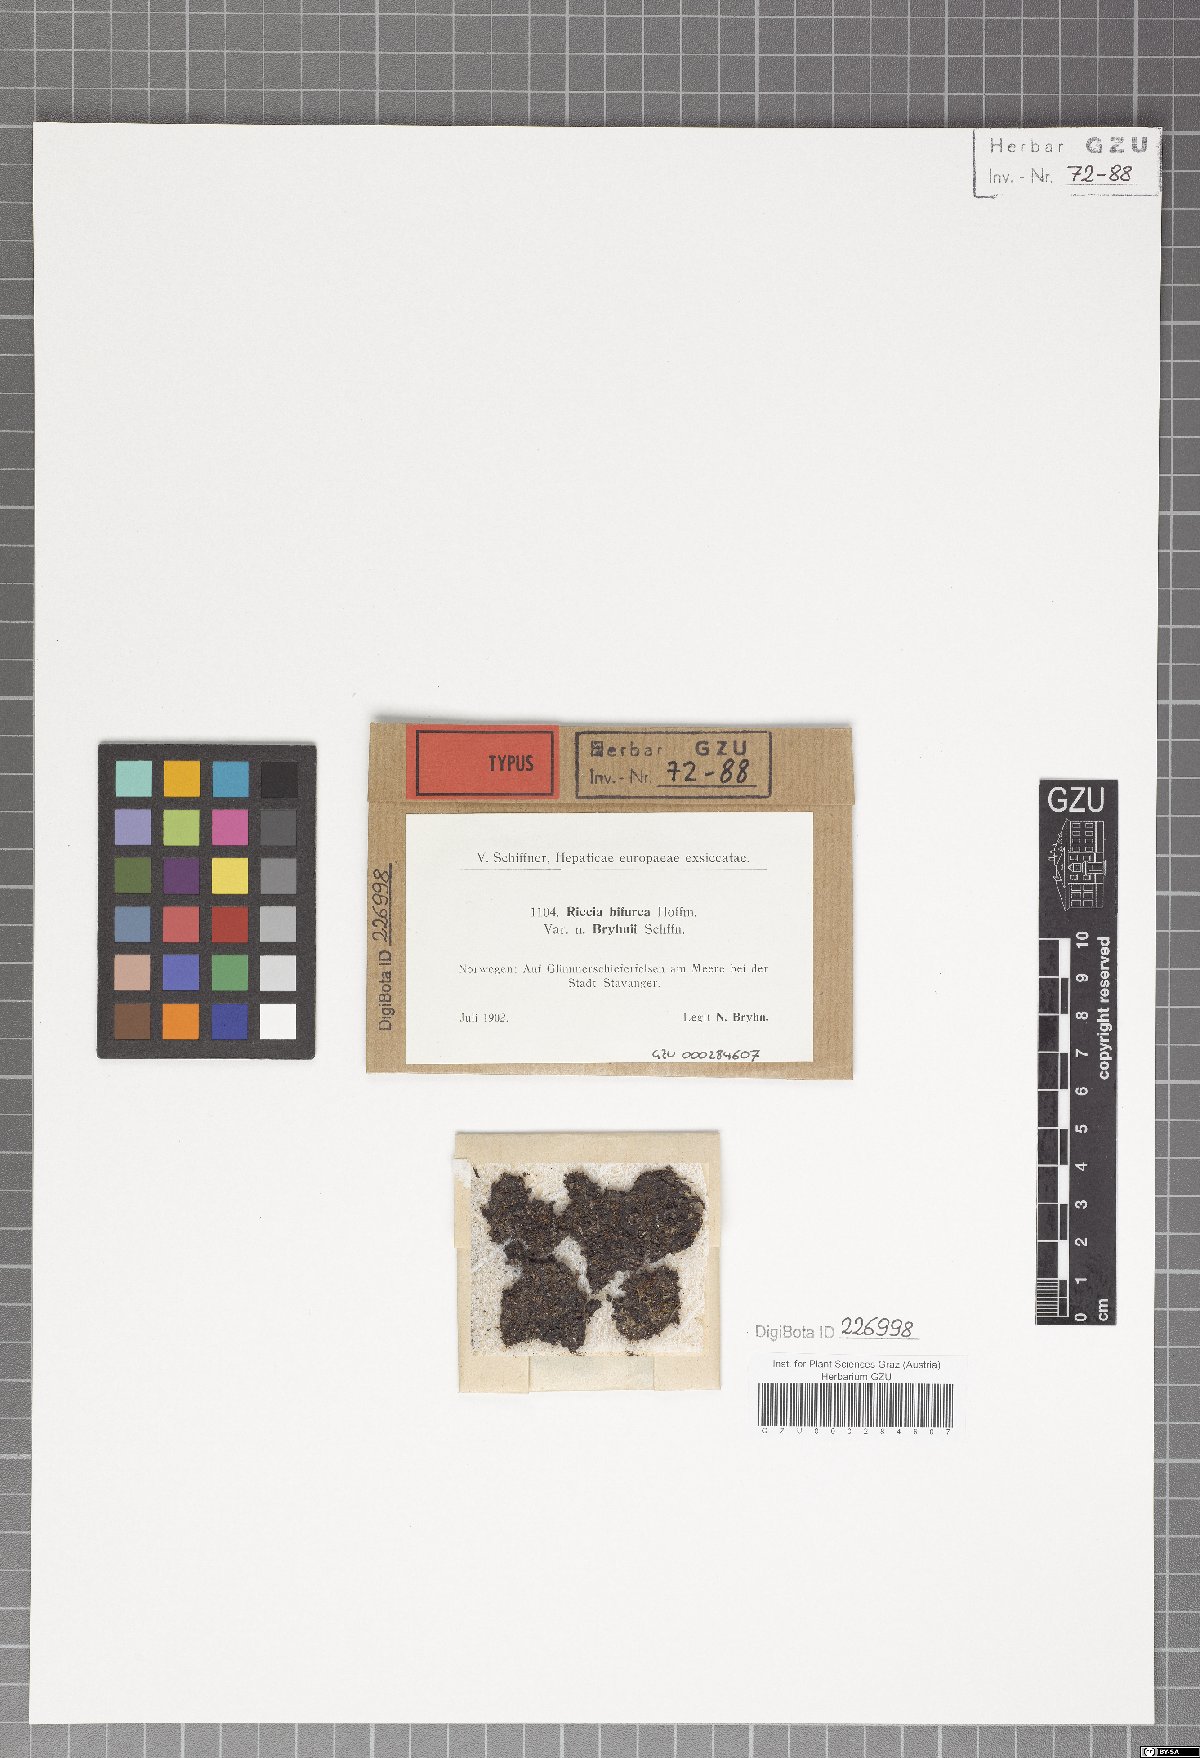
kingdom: Plantae
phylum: Marchantiophyta
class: Marchantiopsida
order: Marchantiales
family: Ricciaceae
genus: Riccia
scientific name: Riccia bifurca
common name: Lizard crystalwort
